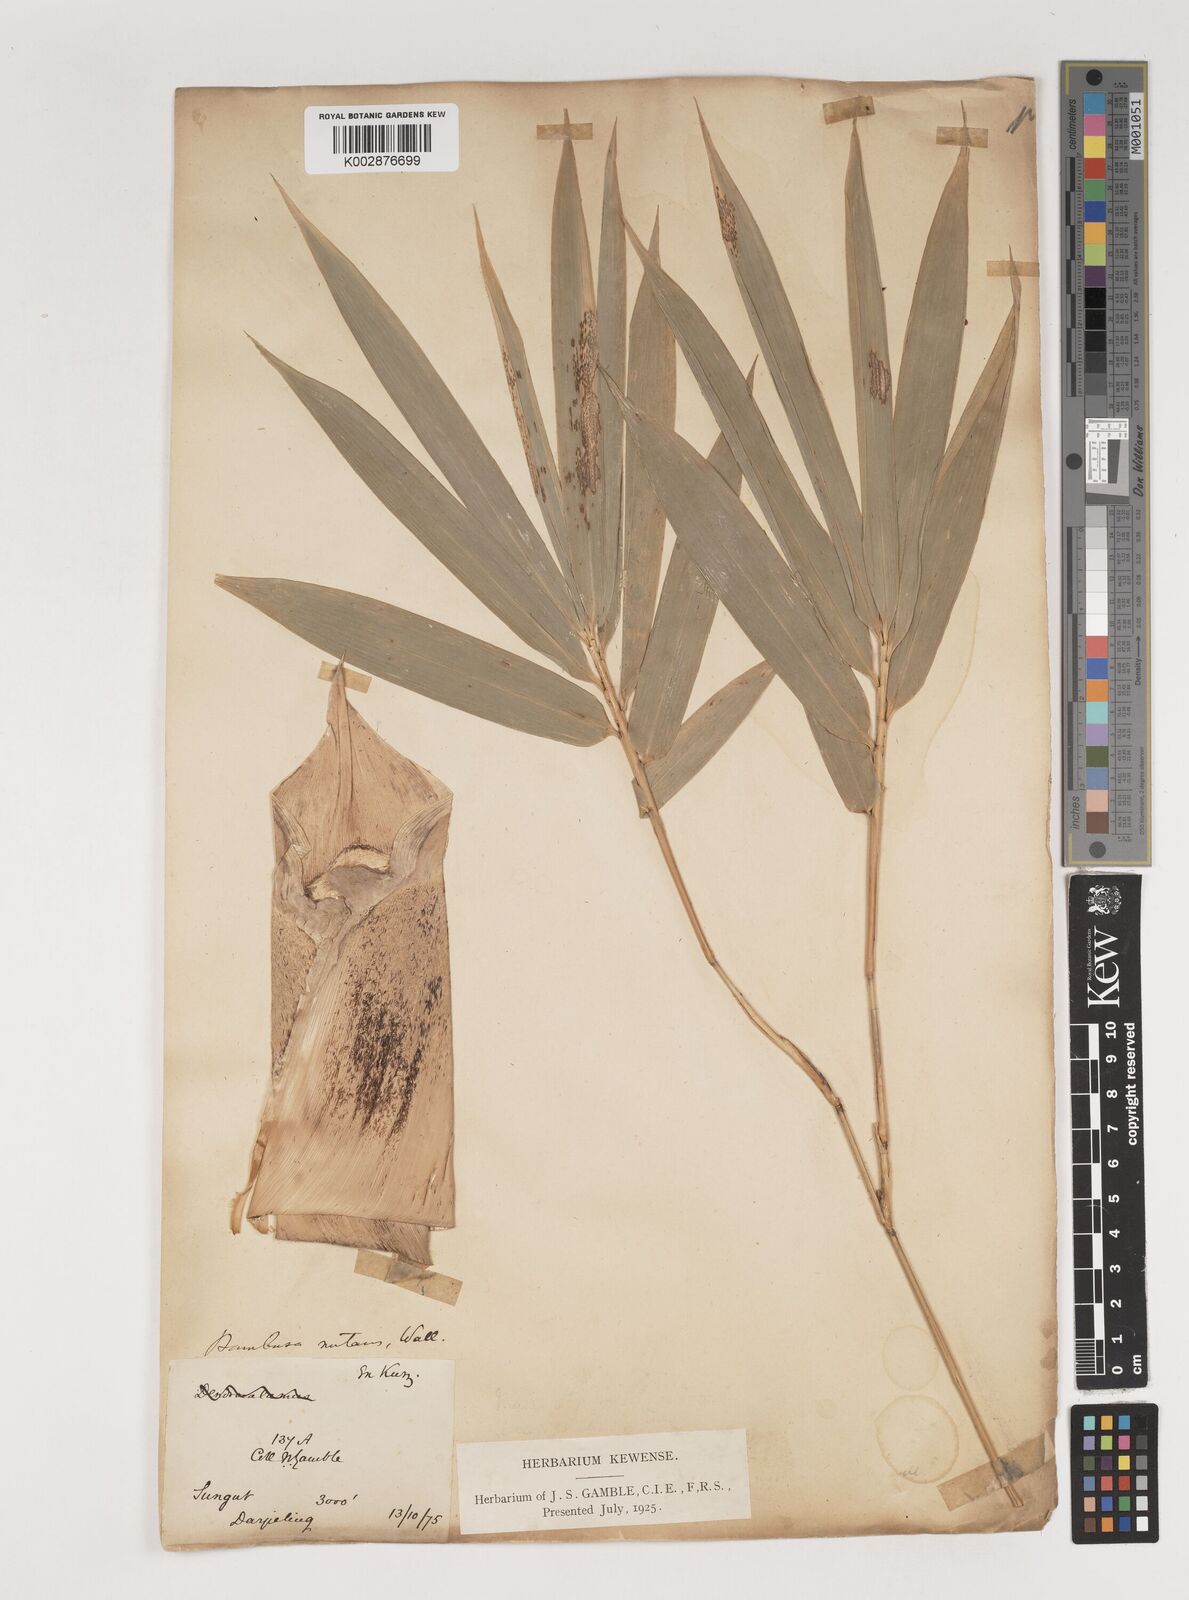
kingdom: Plantae
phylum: Tracheophyta
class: Liliopsida
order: Poales
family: Poaceae
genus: Bambusa
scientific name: Bambusa nutans
